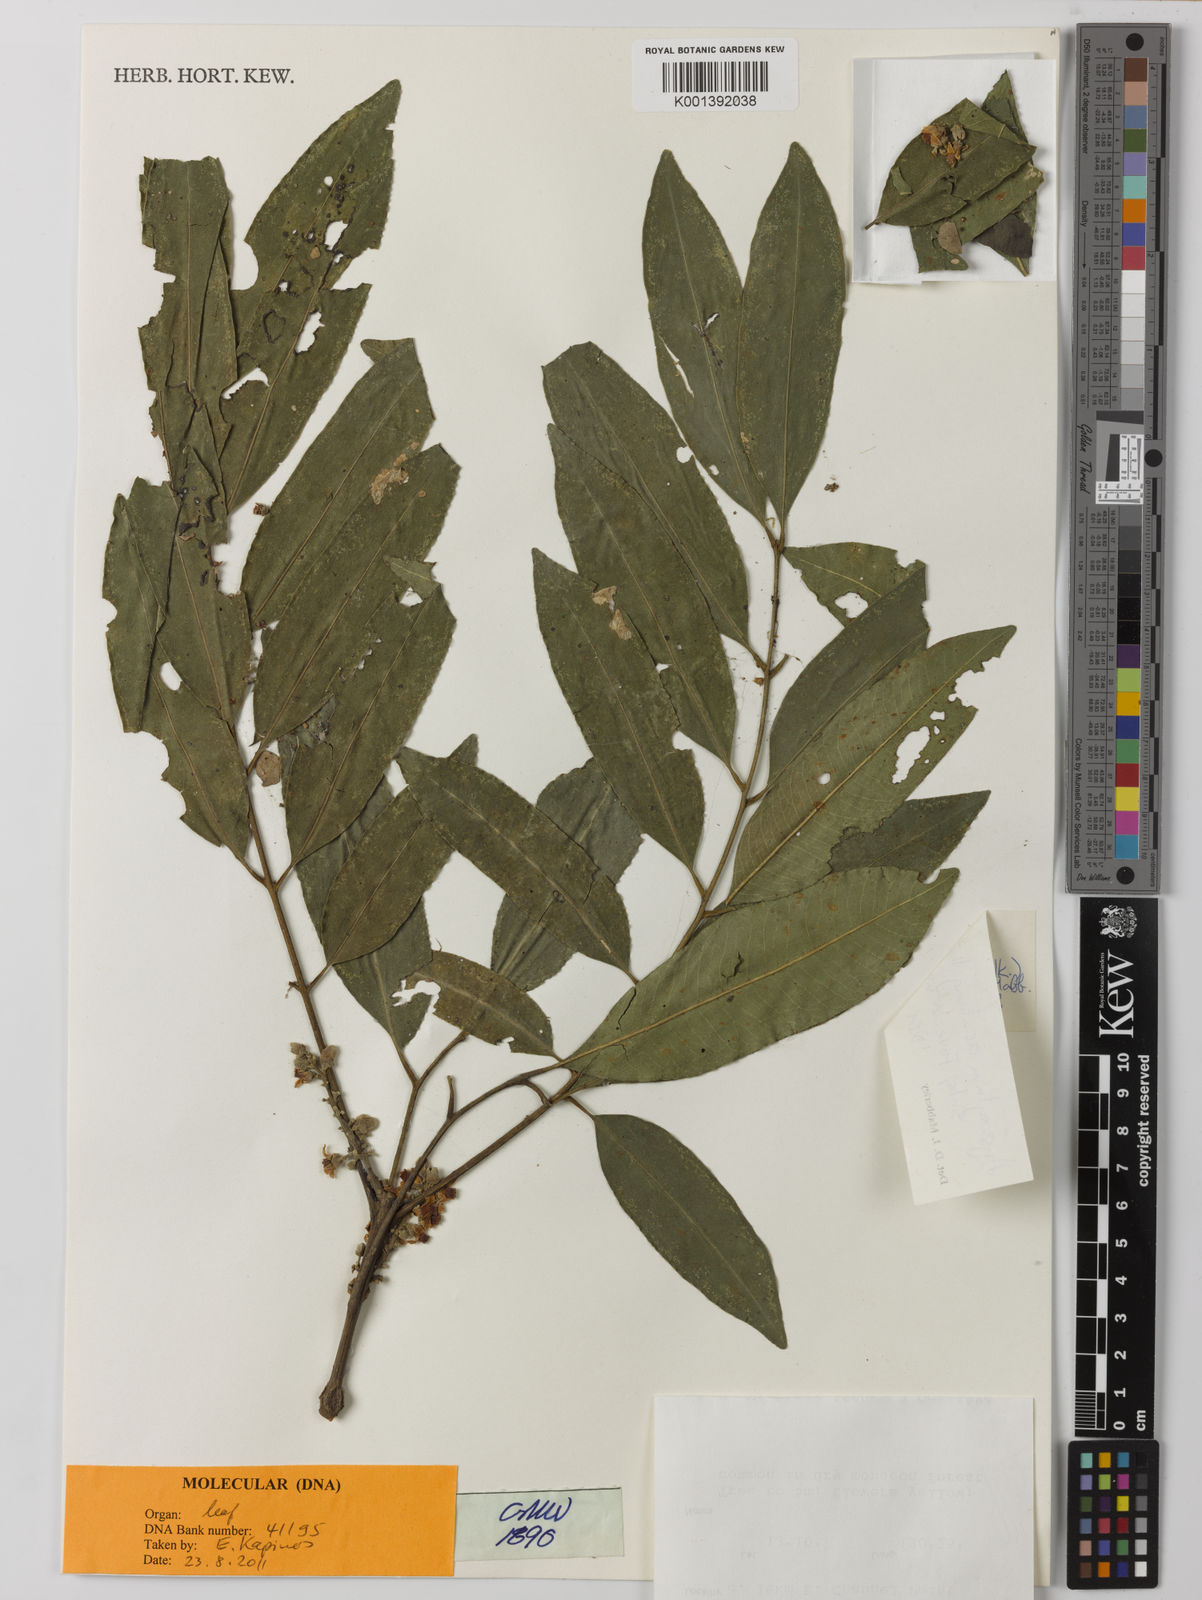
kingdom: Plantae
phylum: Tracheophyta
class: Magnoliopsida
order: Sapindales
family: Meliaceae
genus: Dysoxylum
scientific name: Dysoxylum acutangulum
